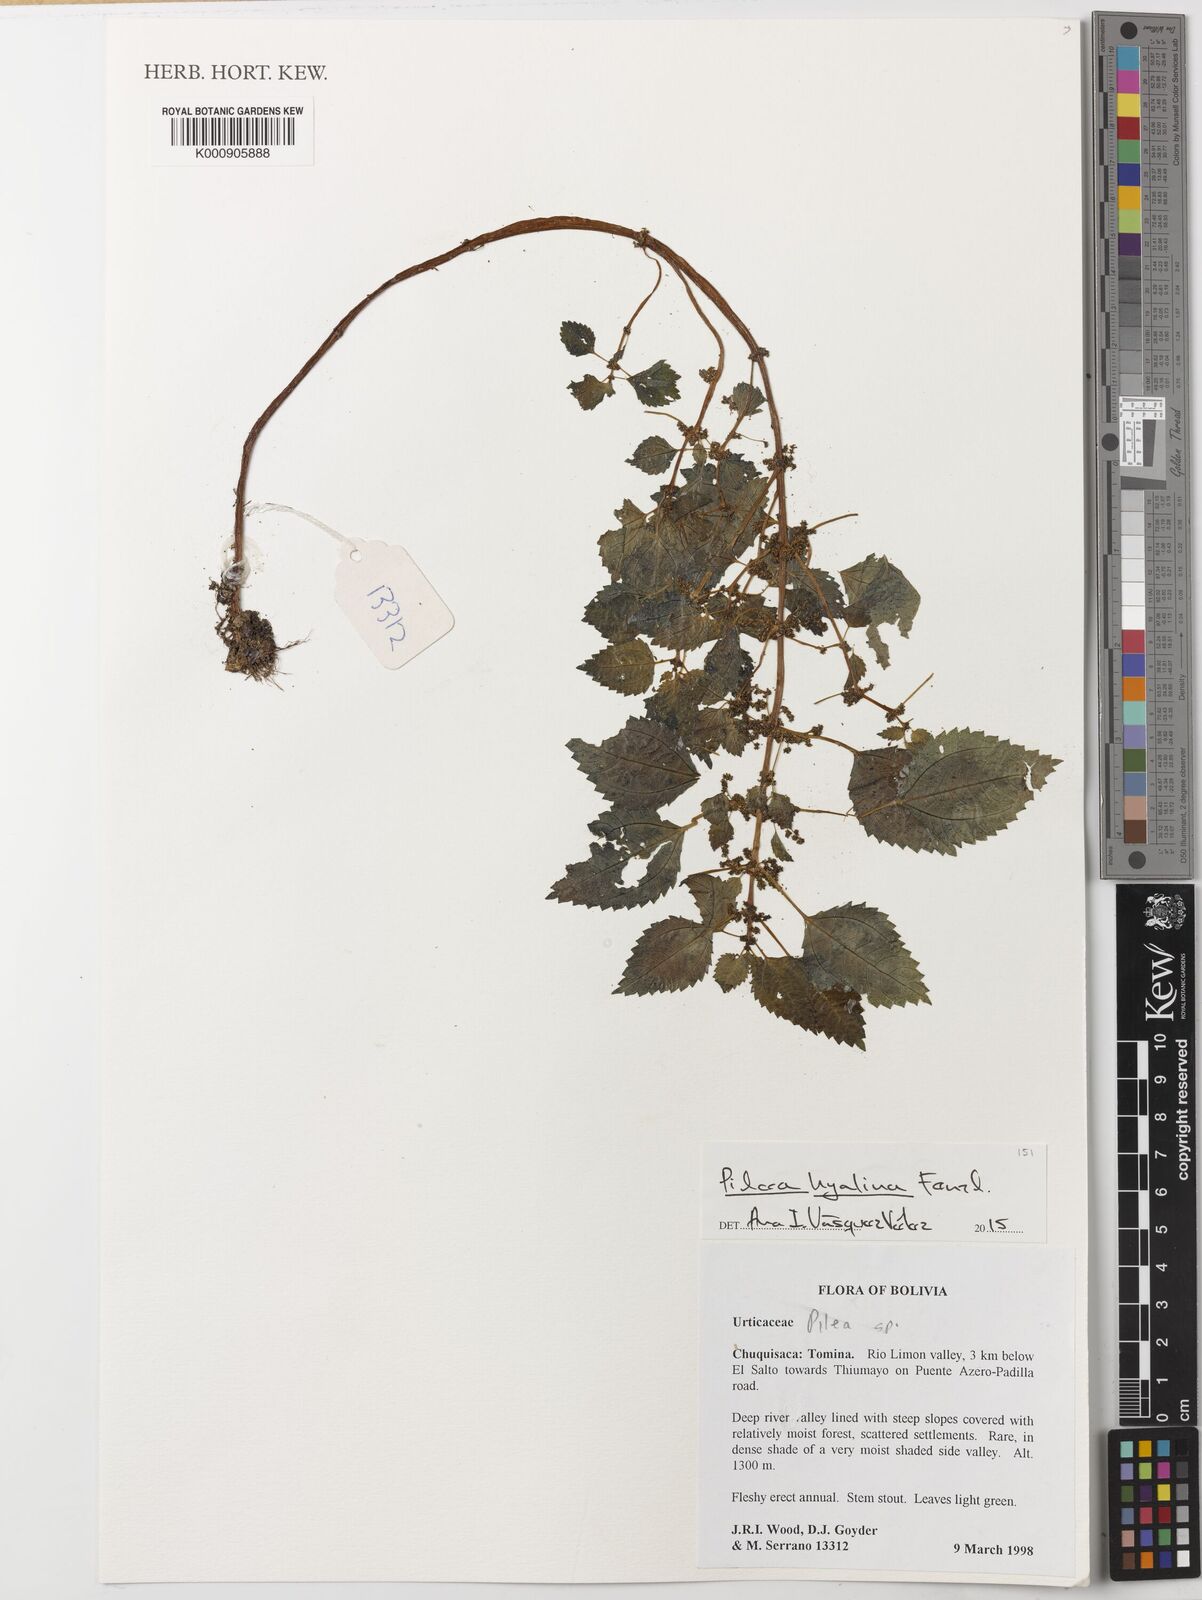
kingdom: Plantae
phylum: Tracheophyta
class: Magnoliopsida
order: Rosales
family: Urticaceae
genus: Pilea
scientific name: Pilea hyalina
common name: Virdrillo
